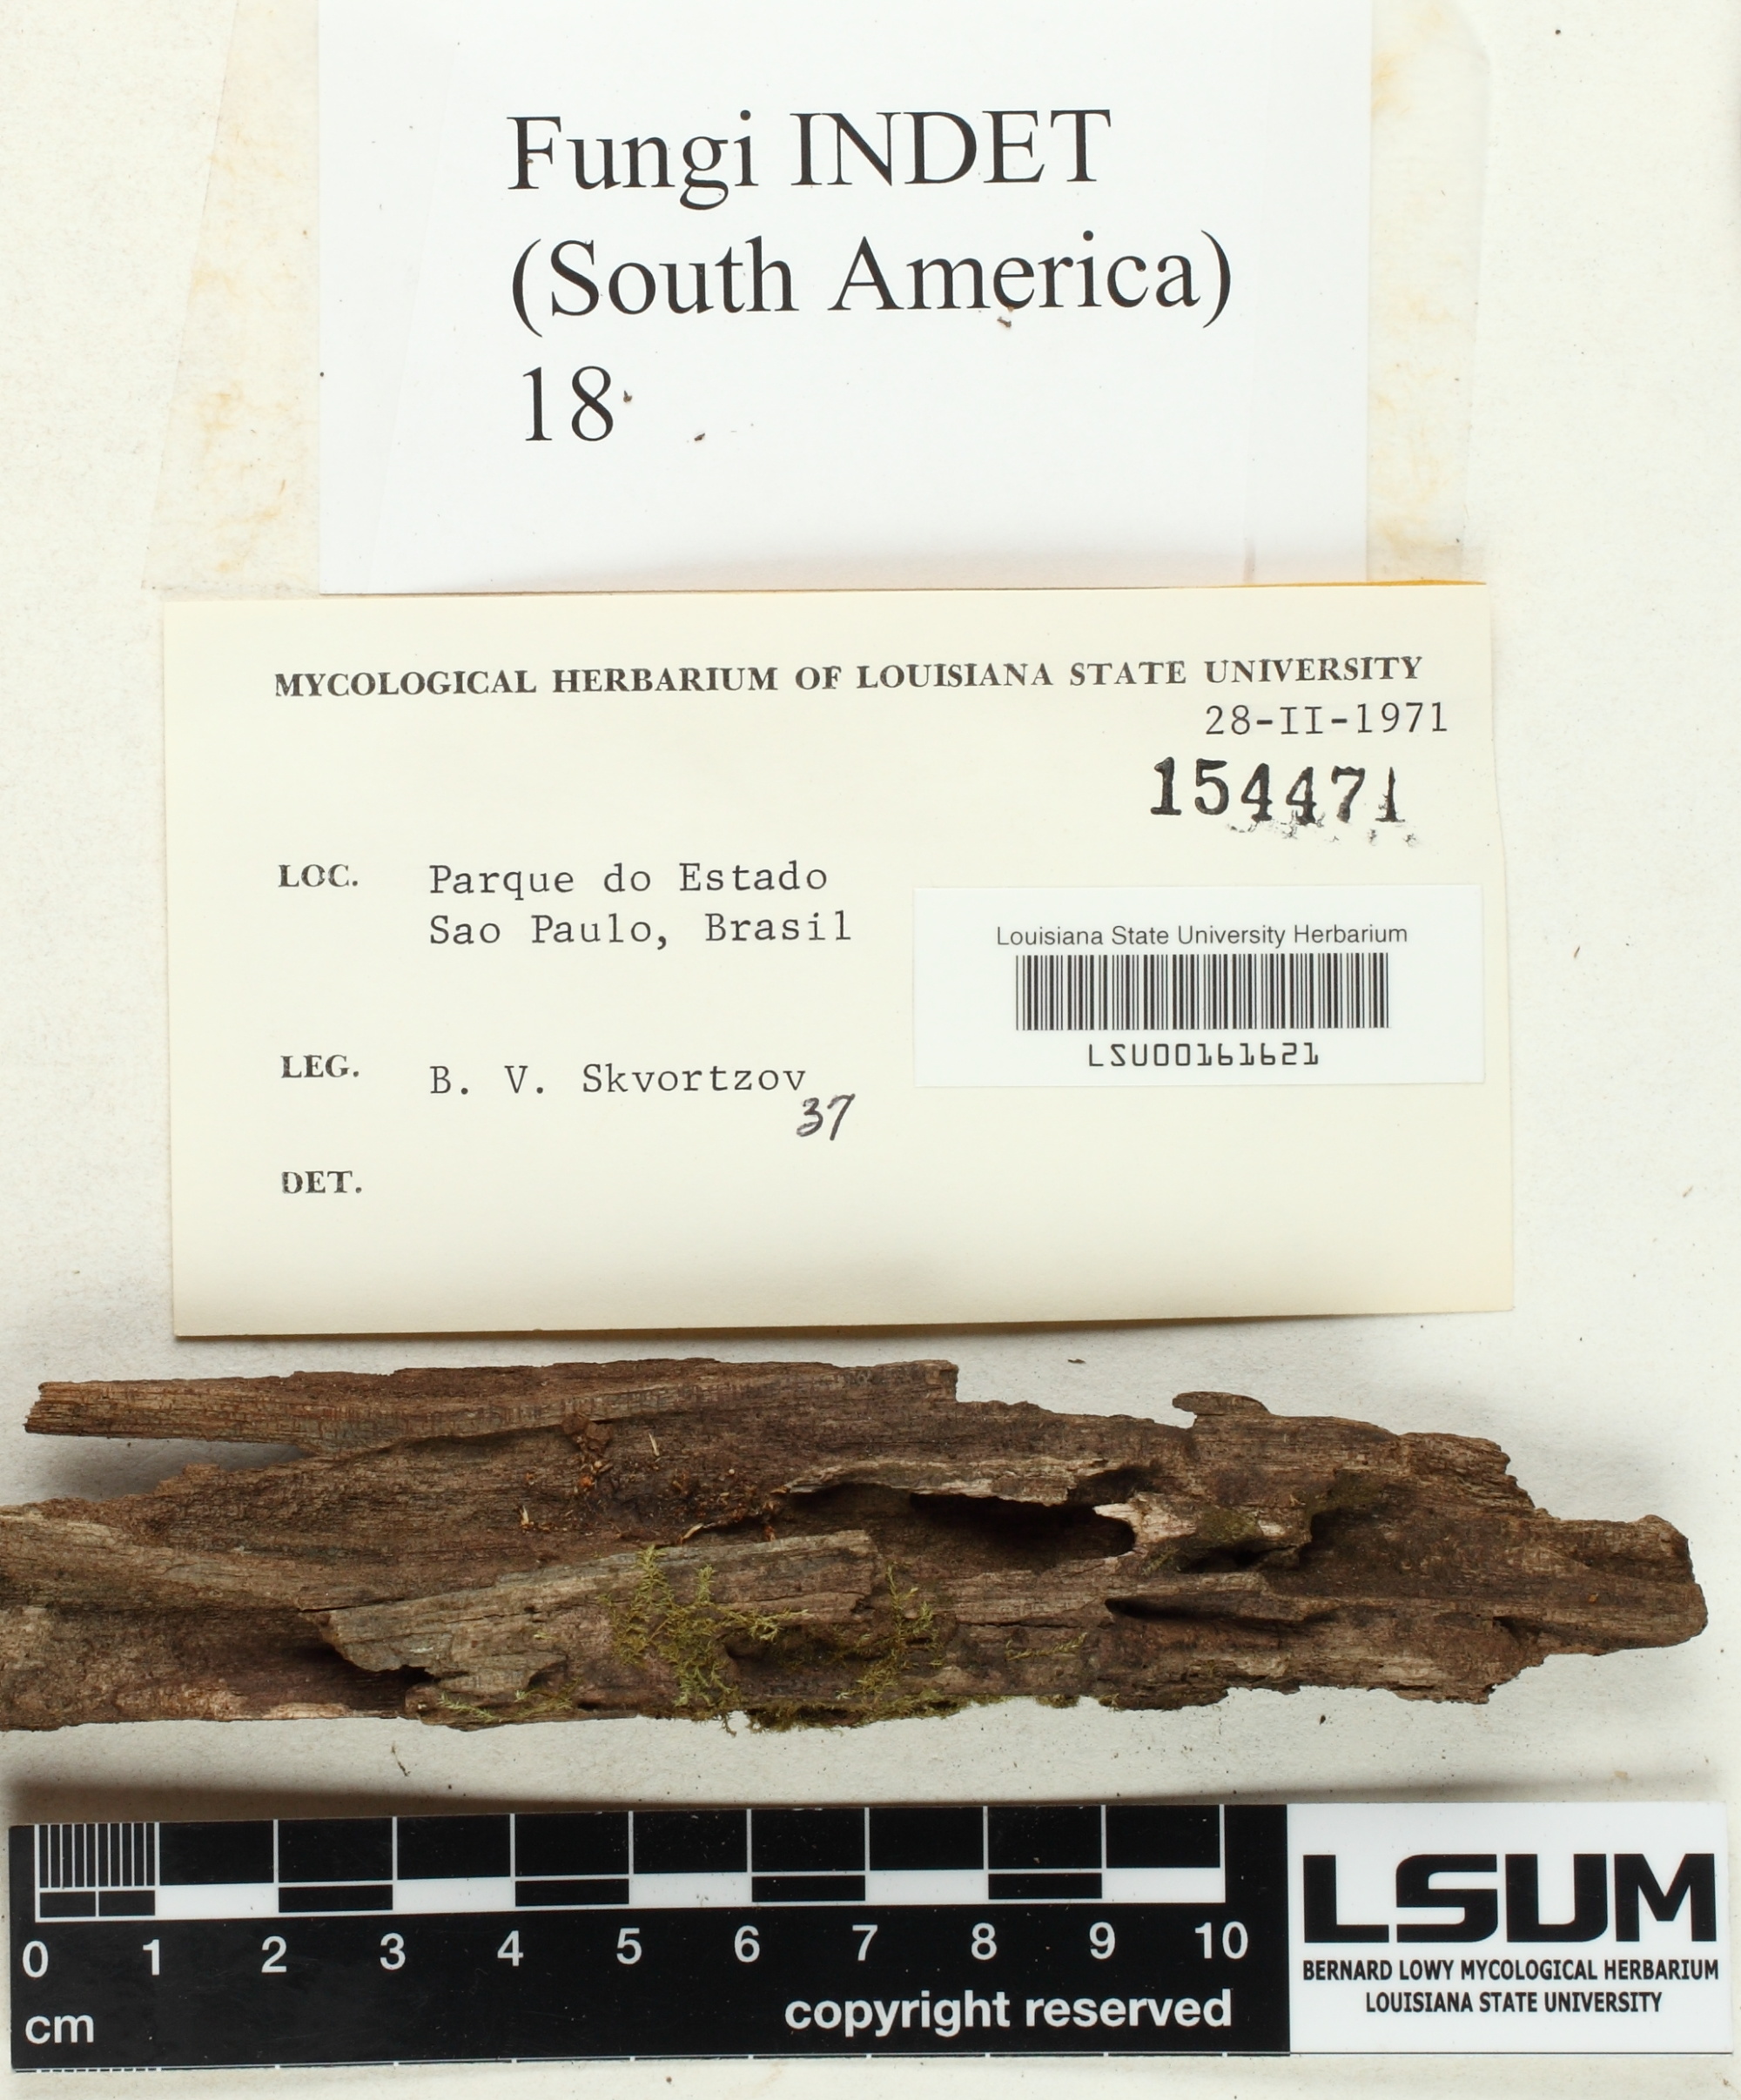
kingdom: Fungi
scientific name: Fungi
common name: Fungi
